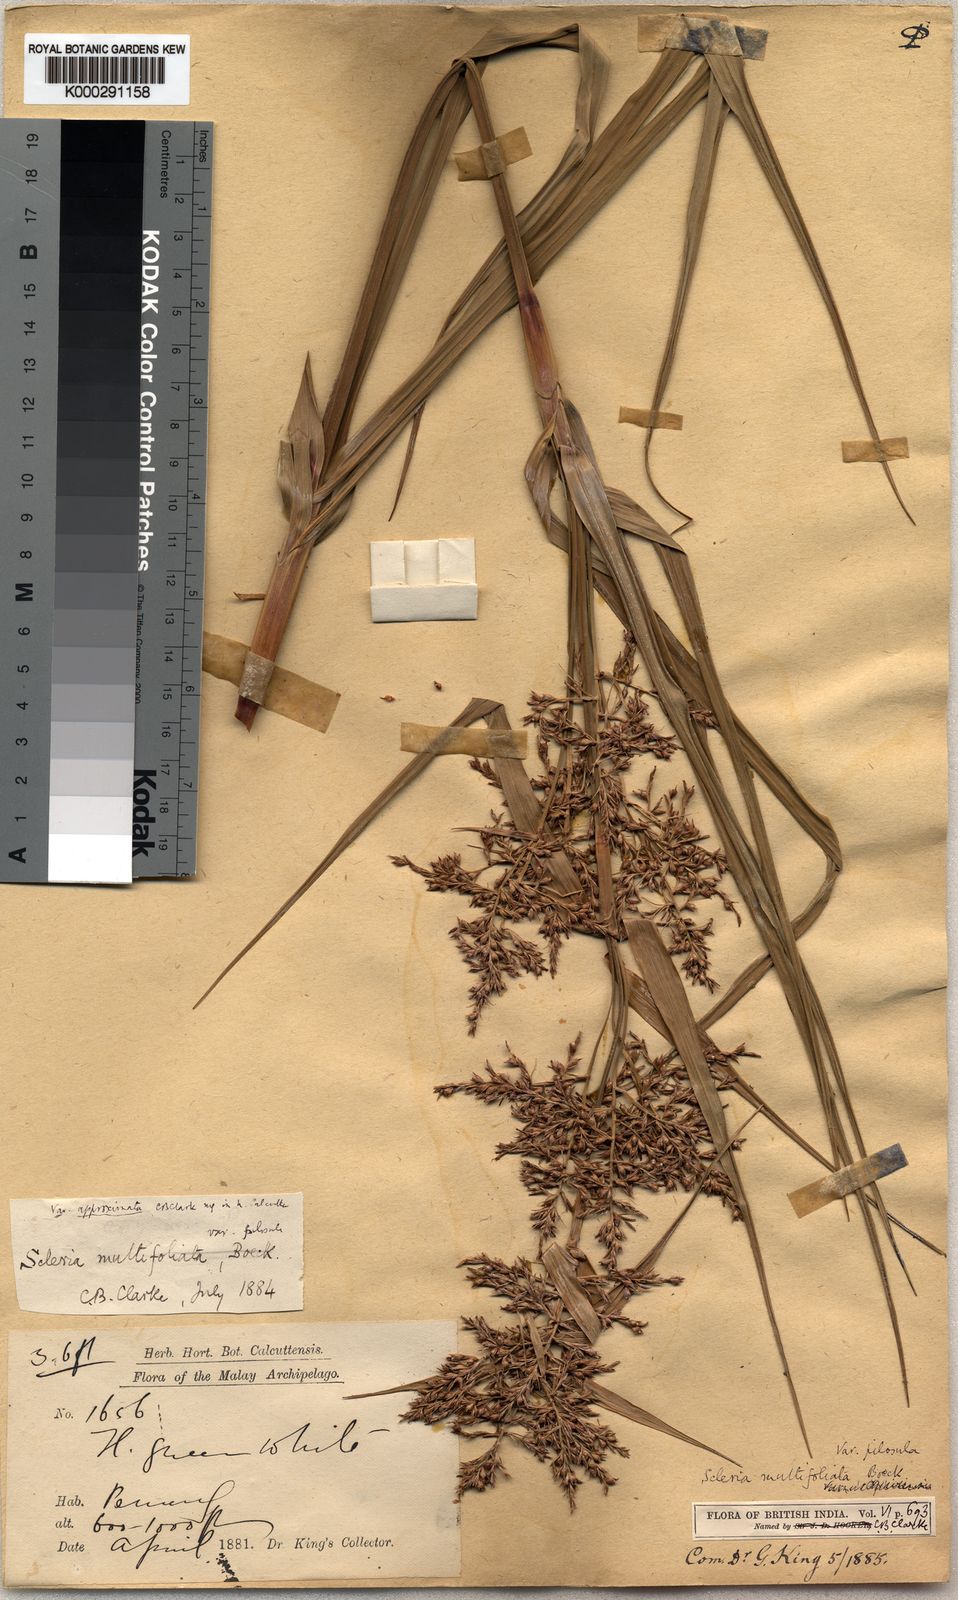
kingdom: Plantae
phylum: Tracheophyta
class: Liliopsida
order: Poales
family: Cyperaceae
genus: Scleria
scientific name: Scleria purpurascens
